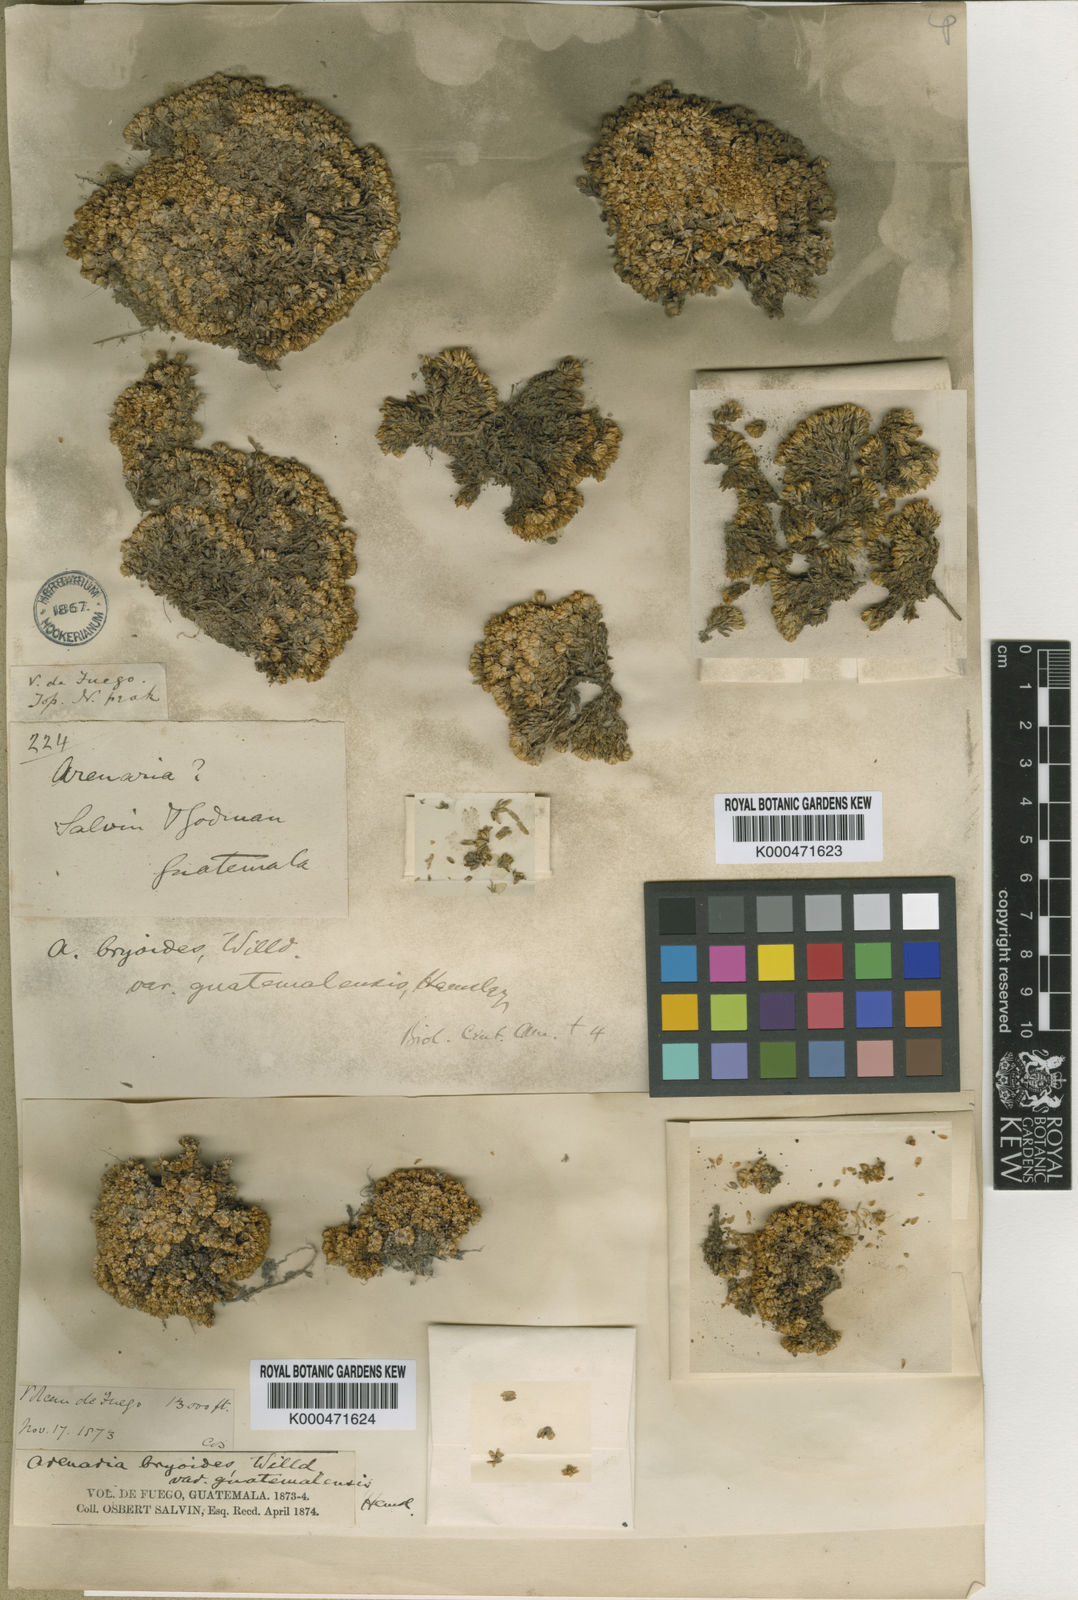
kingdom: Plantae
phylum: Tracheophyta
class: Magnoliopsida
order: Caryophyllales
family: Caryophyllaceae
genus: Arenaria
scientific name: Arenaria bryoides
